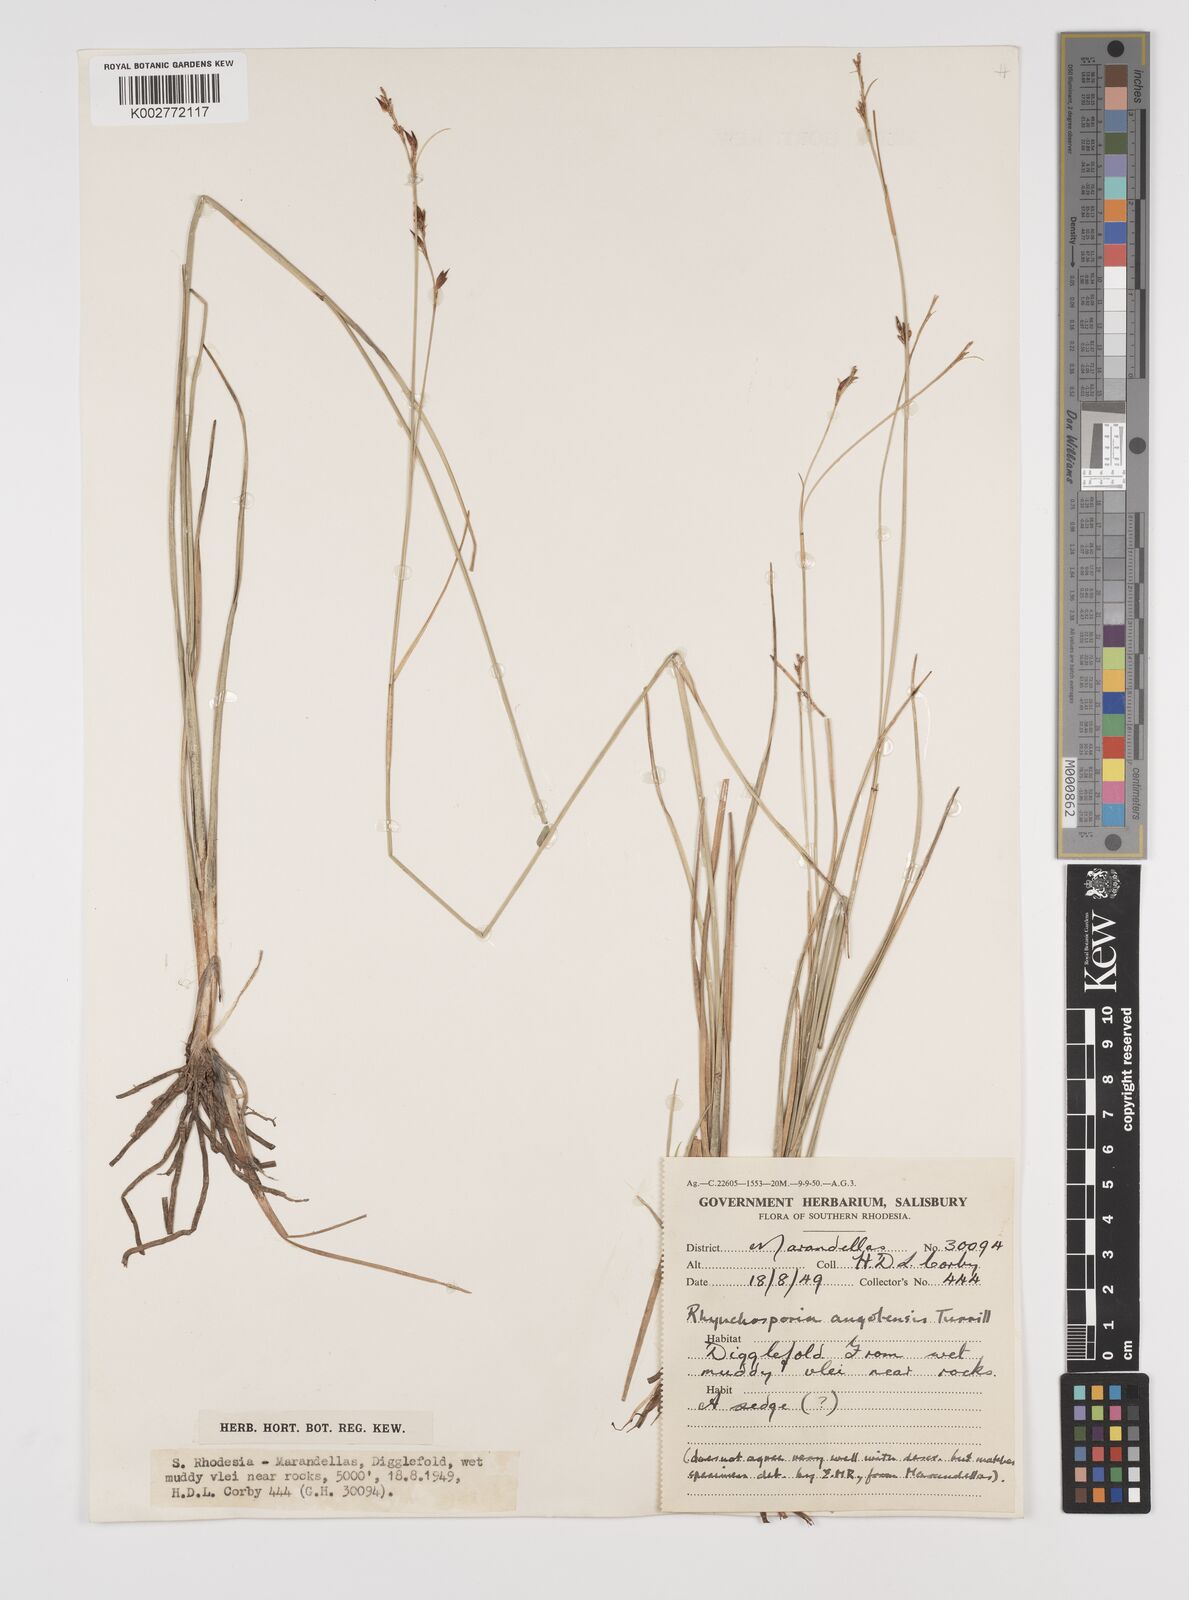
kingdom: Plantae
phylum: Tracheophyta
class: Liliopsida
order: Poales
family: Cyperaceae
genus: Rhynchospora
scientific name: Rhynchospora rugosa
